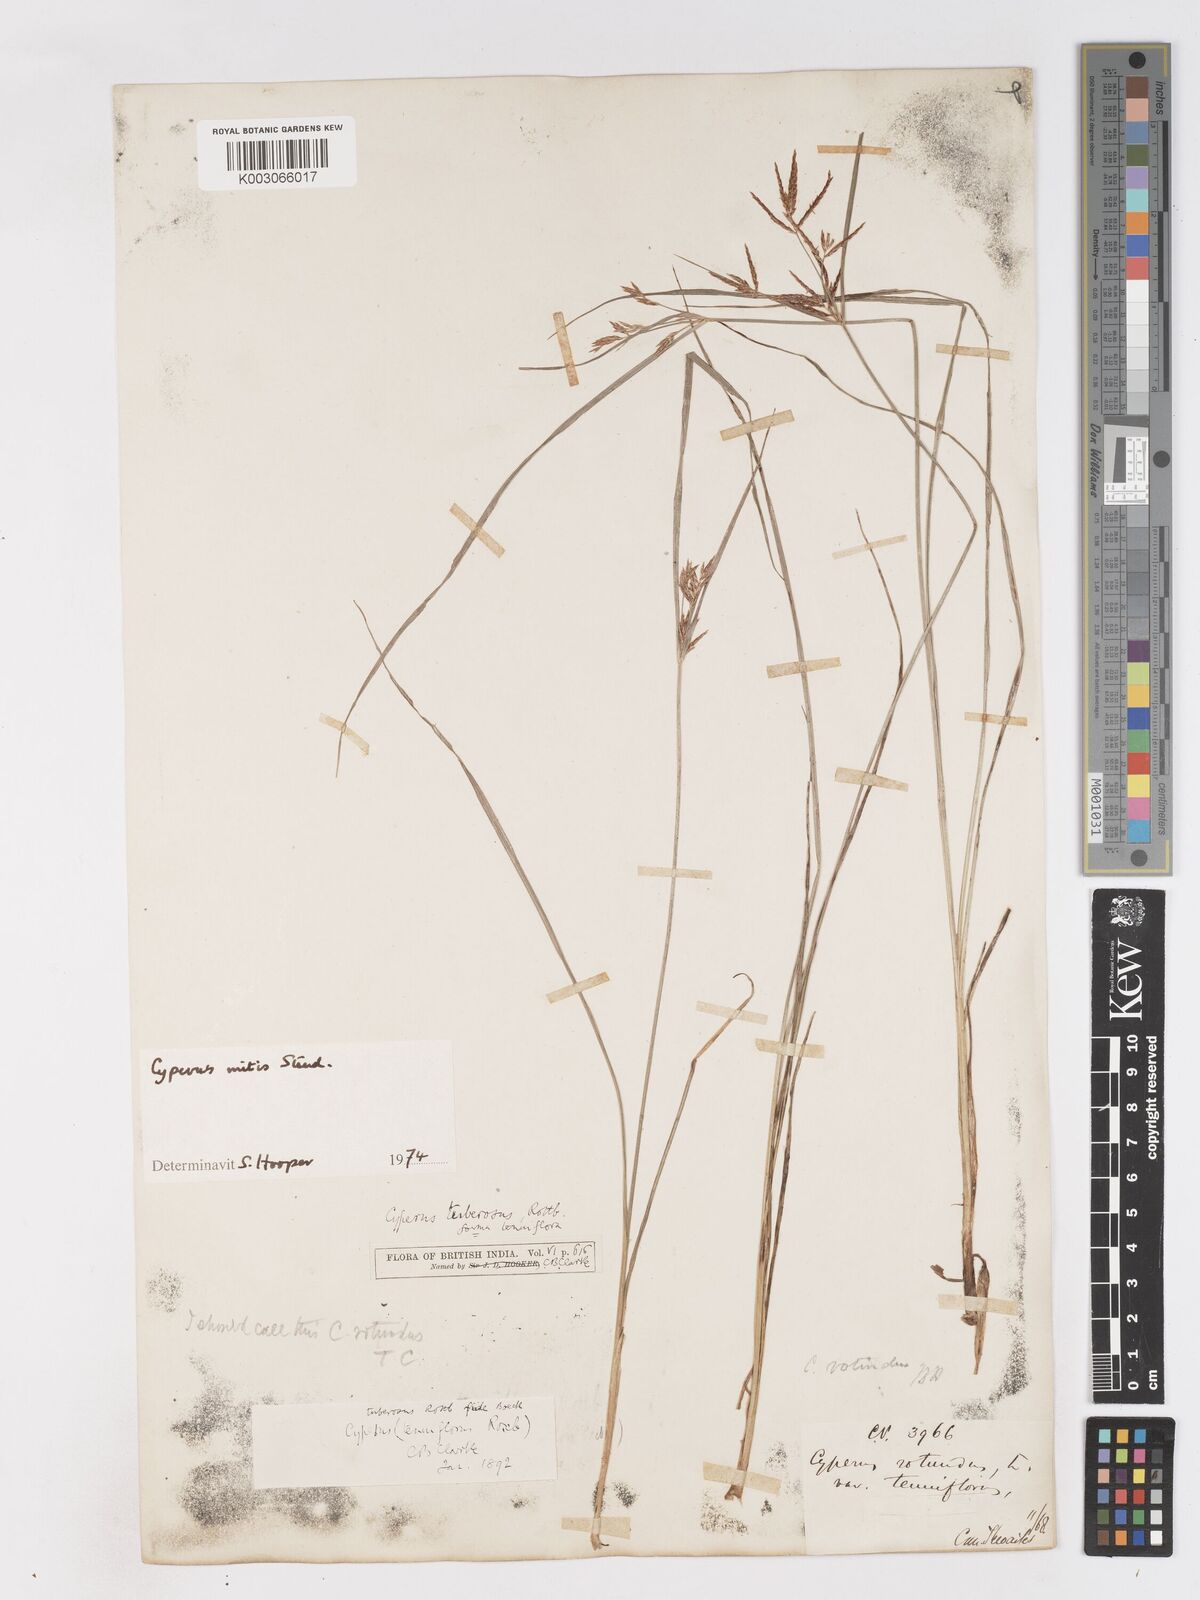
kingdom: Plantae
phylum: Tracheophyta
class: Liliopsida
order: Poales
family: Cyperaceae
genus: Cyperus
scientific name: Cyperus mitis
